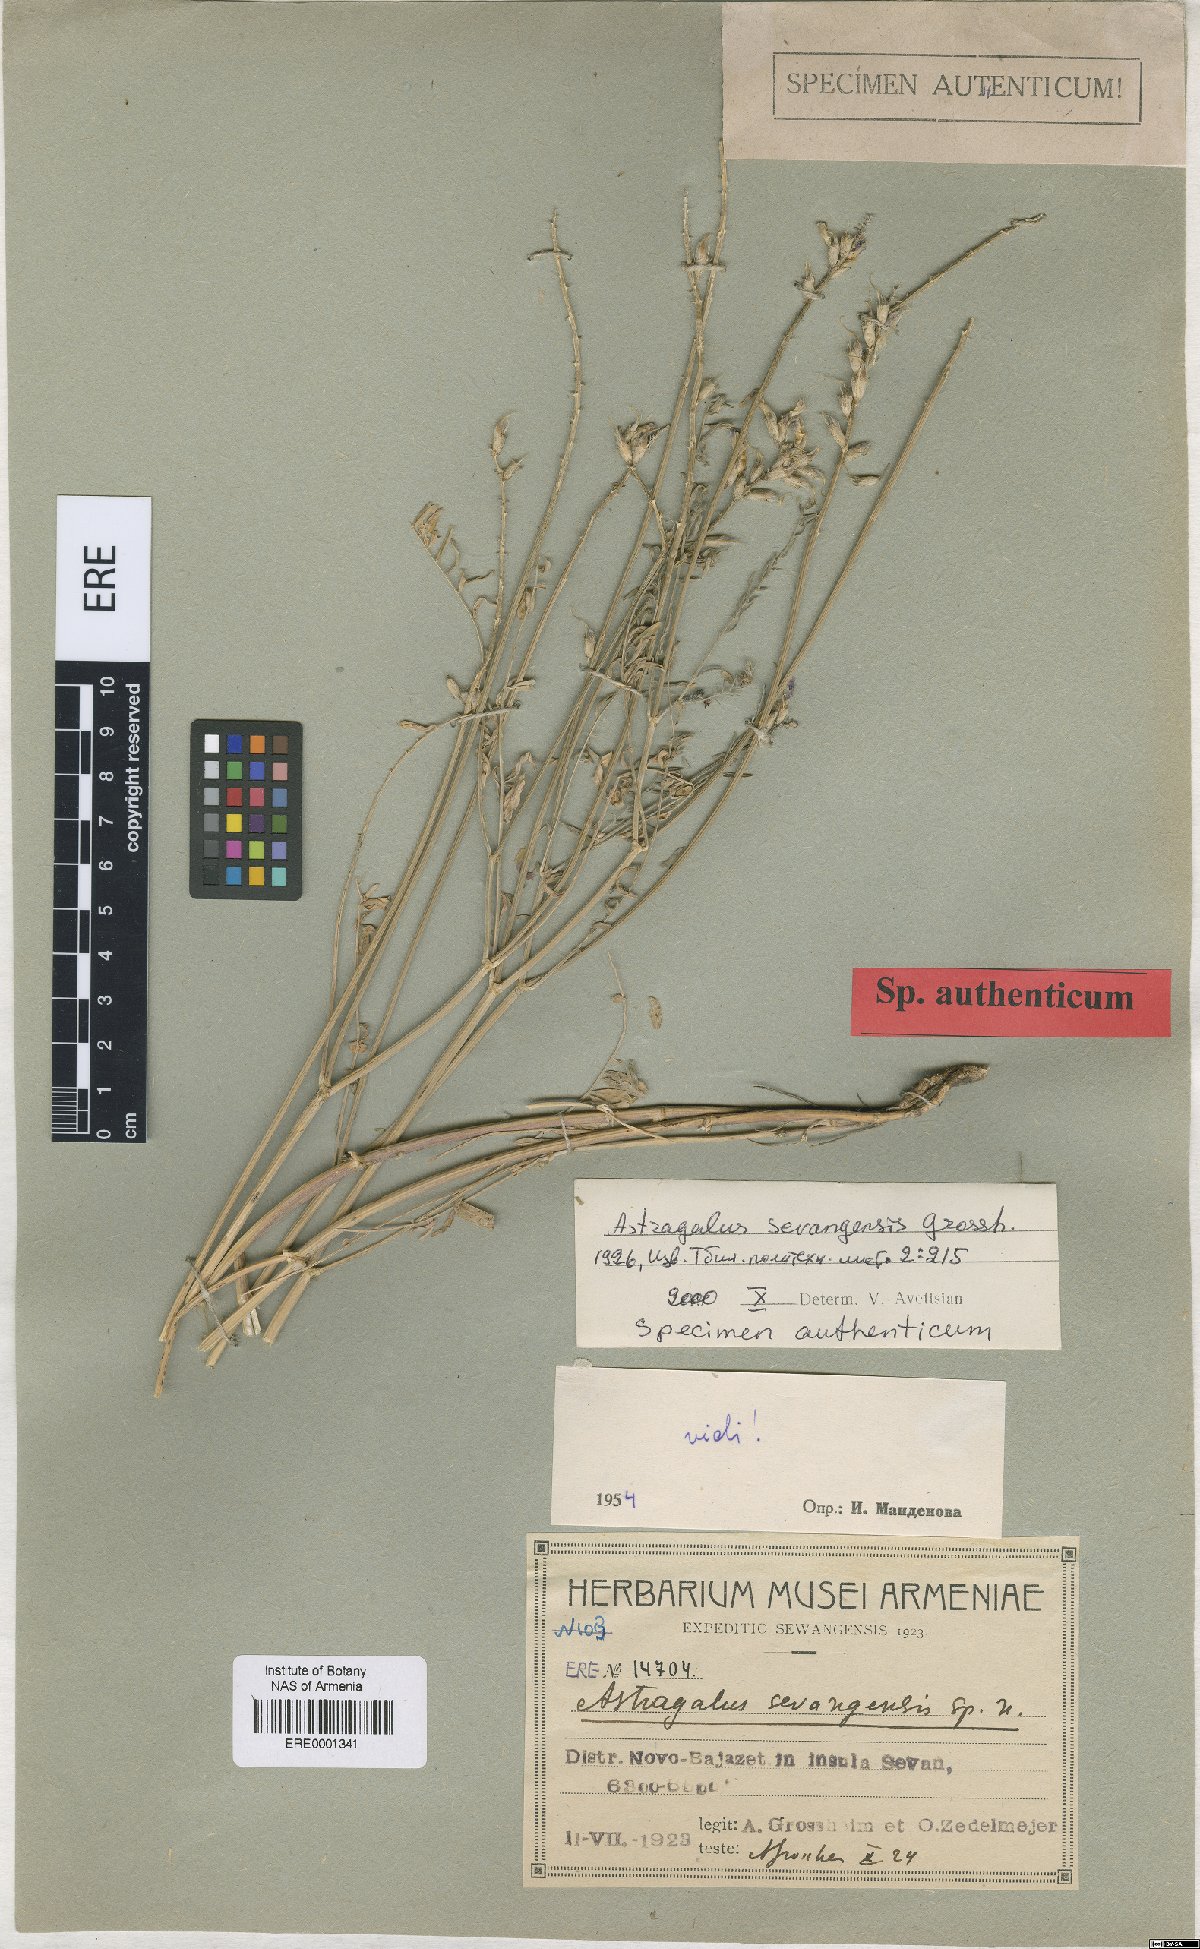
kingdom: Plantae
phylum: Tracheophyta
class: Magnoliopsida
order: Fabales
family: Fabaceae
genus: Astragalus
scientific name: Astragalus sevangensis
